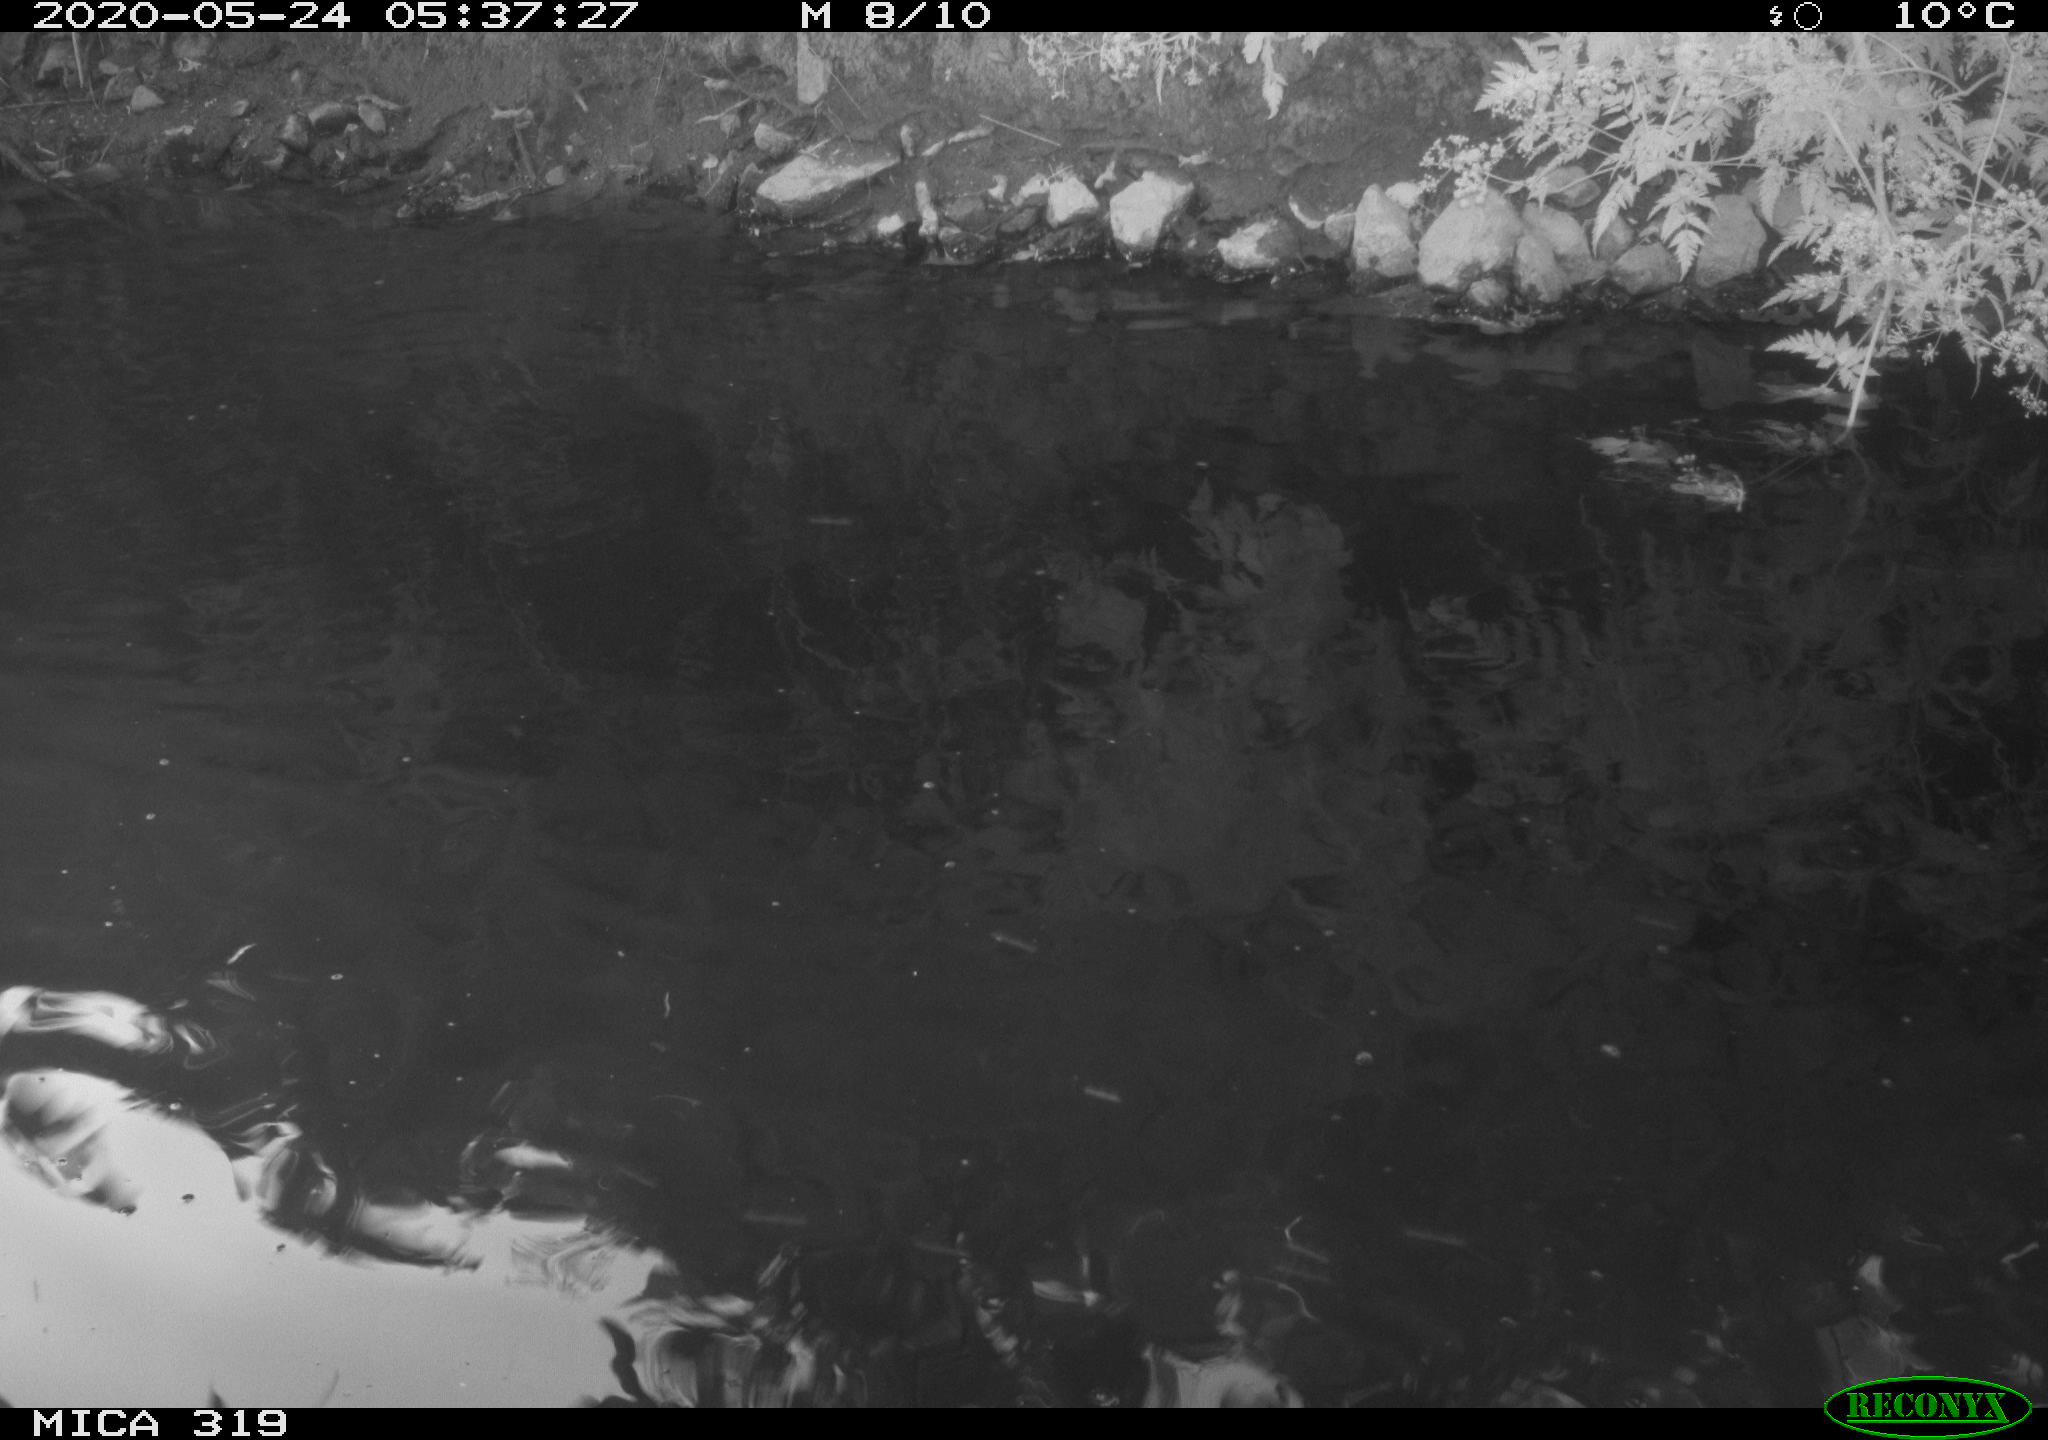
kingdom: Animalia
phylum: Chordata
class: Aves
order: Anseriformes
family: Anatidae
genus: Anas
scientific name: Anas platyrhynchos
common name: Mallard
